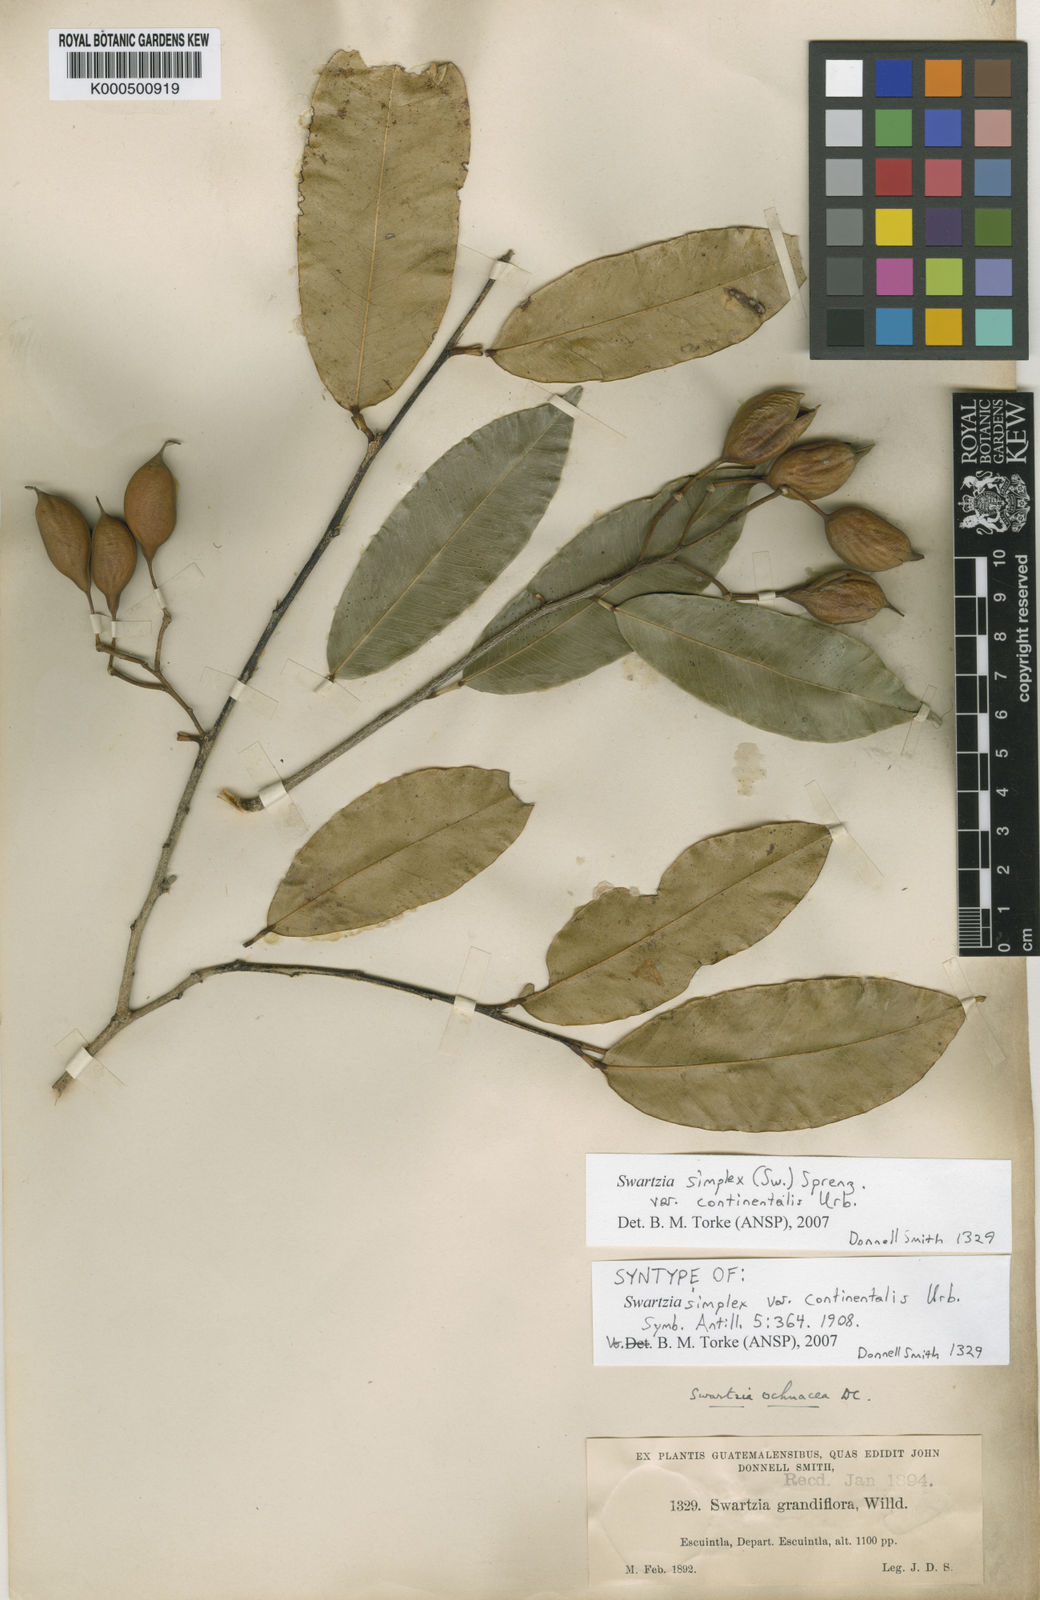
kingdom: Plantae
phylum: Tracheophyta
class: Magnoliopsida
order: Fabales
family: Fabaceae
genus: Swartzia
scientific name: Swartzia simplex
